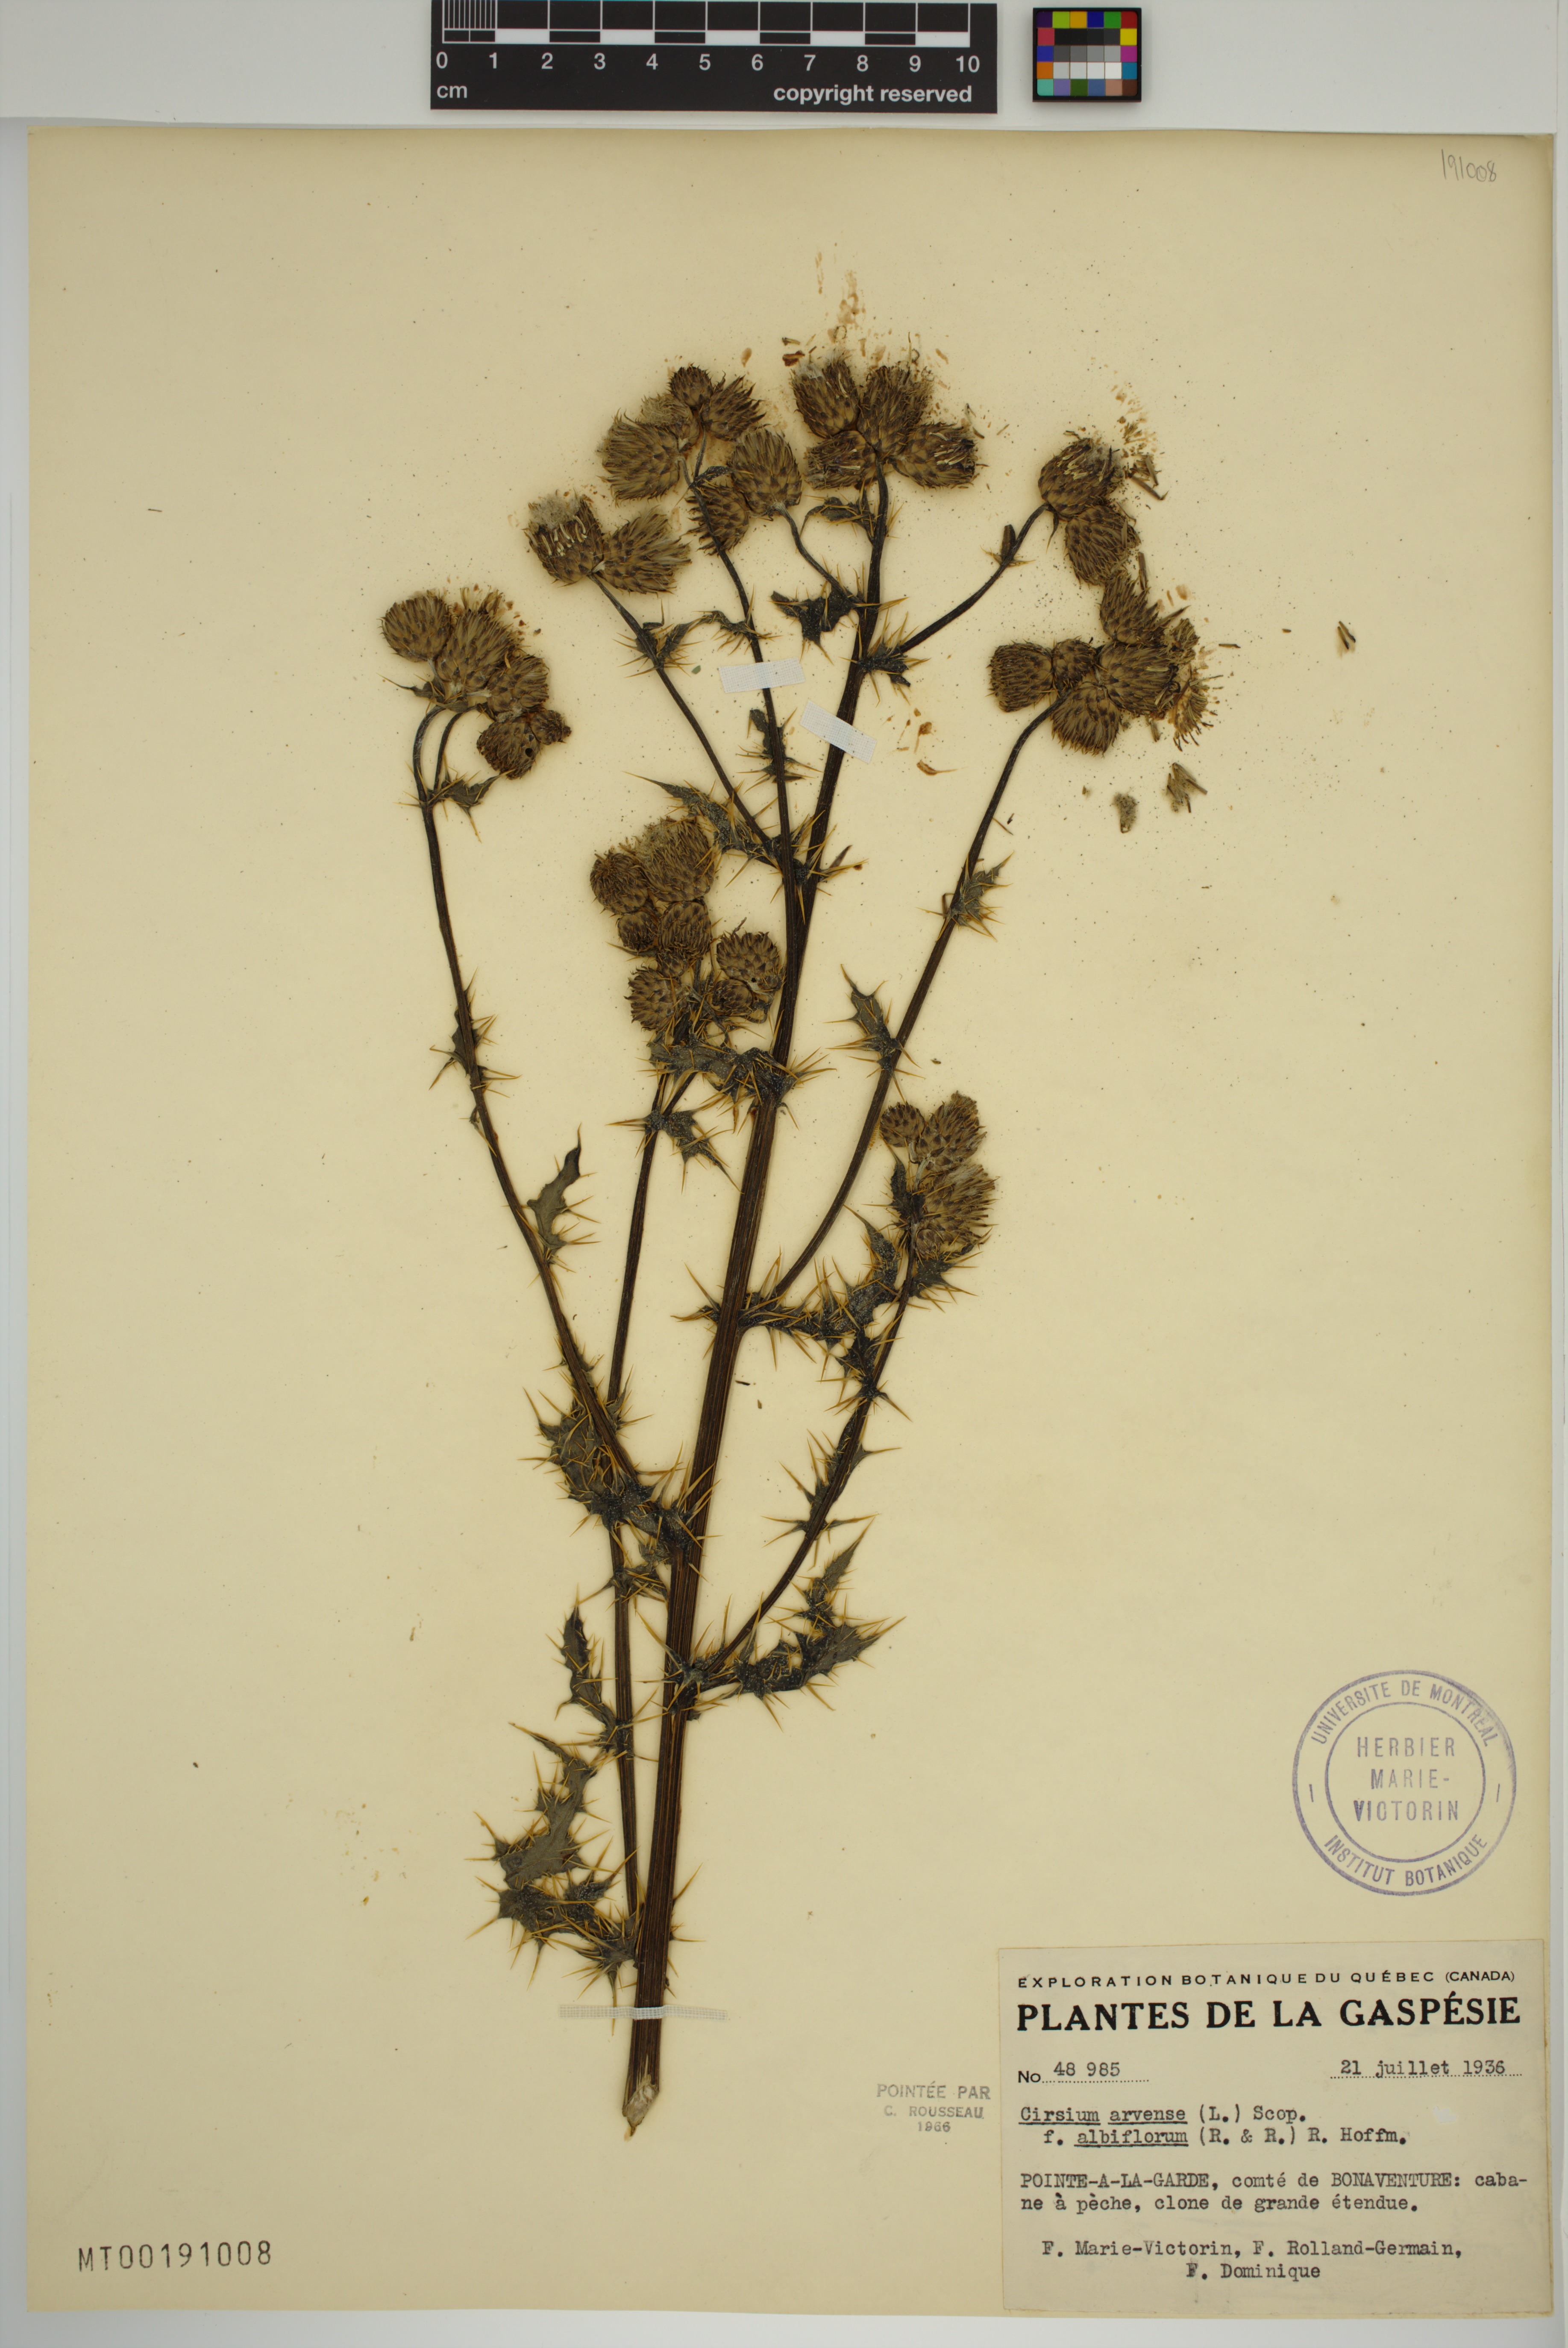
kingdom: Plantae
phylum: Tracheophyta
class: Magnoliopsida
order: Asterales
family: Asteraceae
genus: Cirsium
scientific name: Cirsium arvense
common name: Creeping thistle
